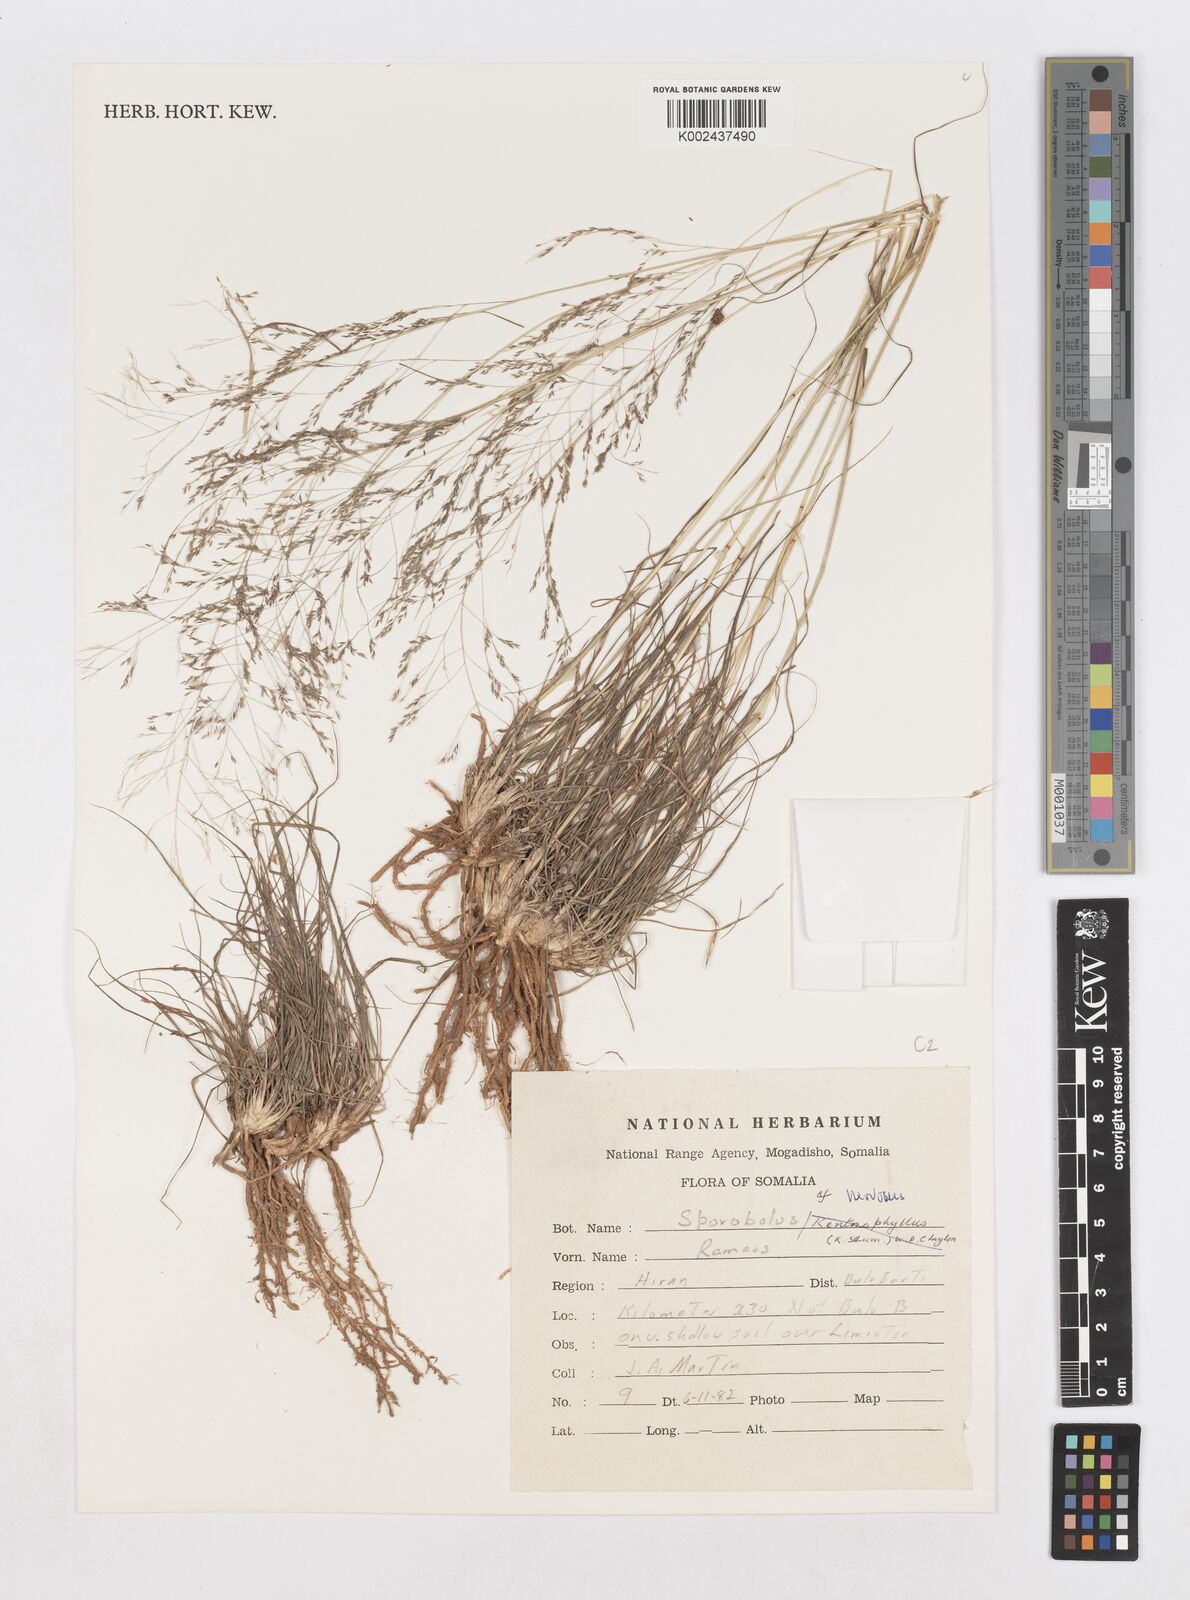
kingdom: Plantae
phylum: Tracheophyta
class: Liliopsida
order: Poales
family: Poaceae
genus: Sporobolus
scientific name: Sporobolus nervosus
